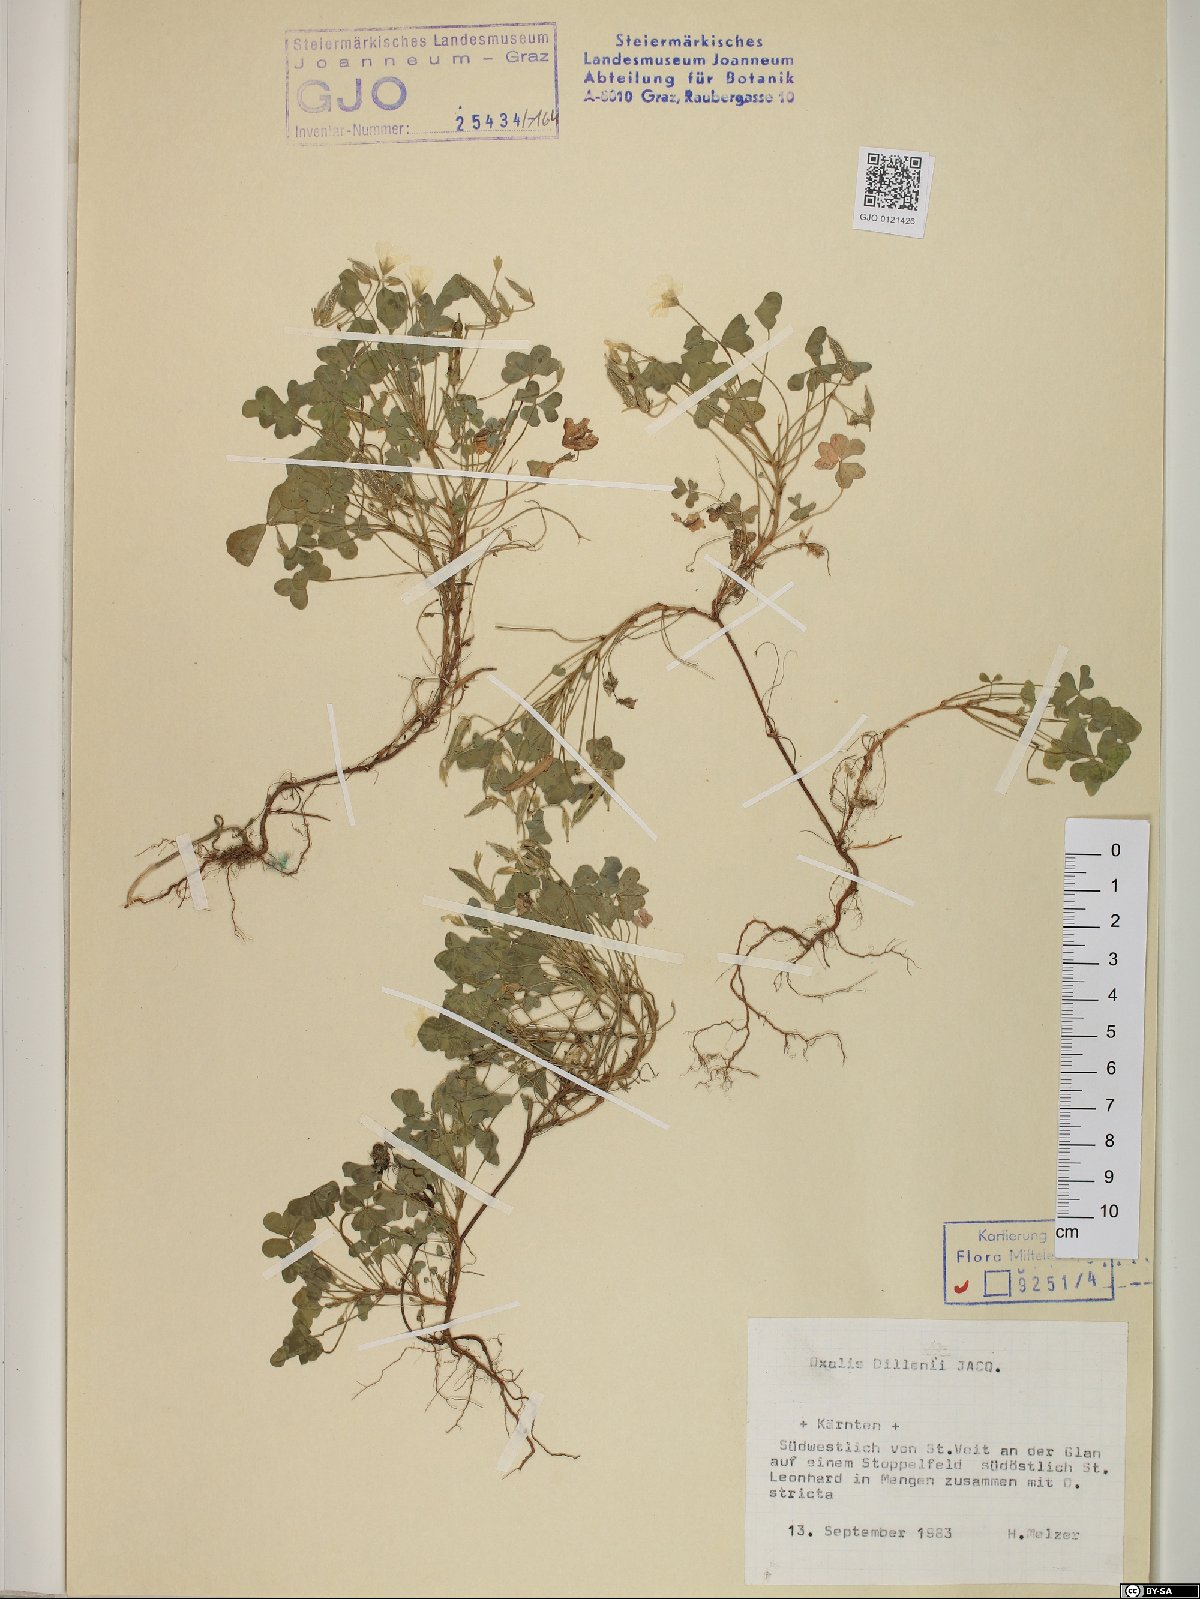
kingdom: Plantae
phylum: Tracheophyta
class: Magnoliopsida
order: Oxalidales
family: Oxalidaceae
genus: Oxalis
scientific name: Oxalis dillenii
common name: Sussex yellow-sorrel
